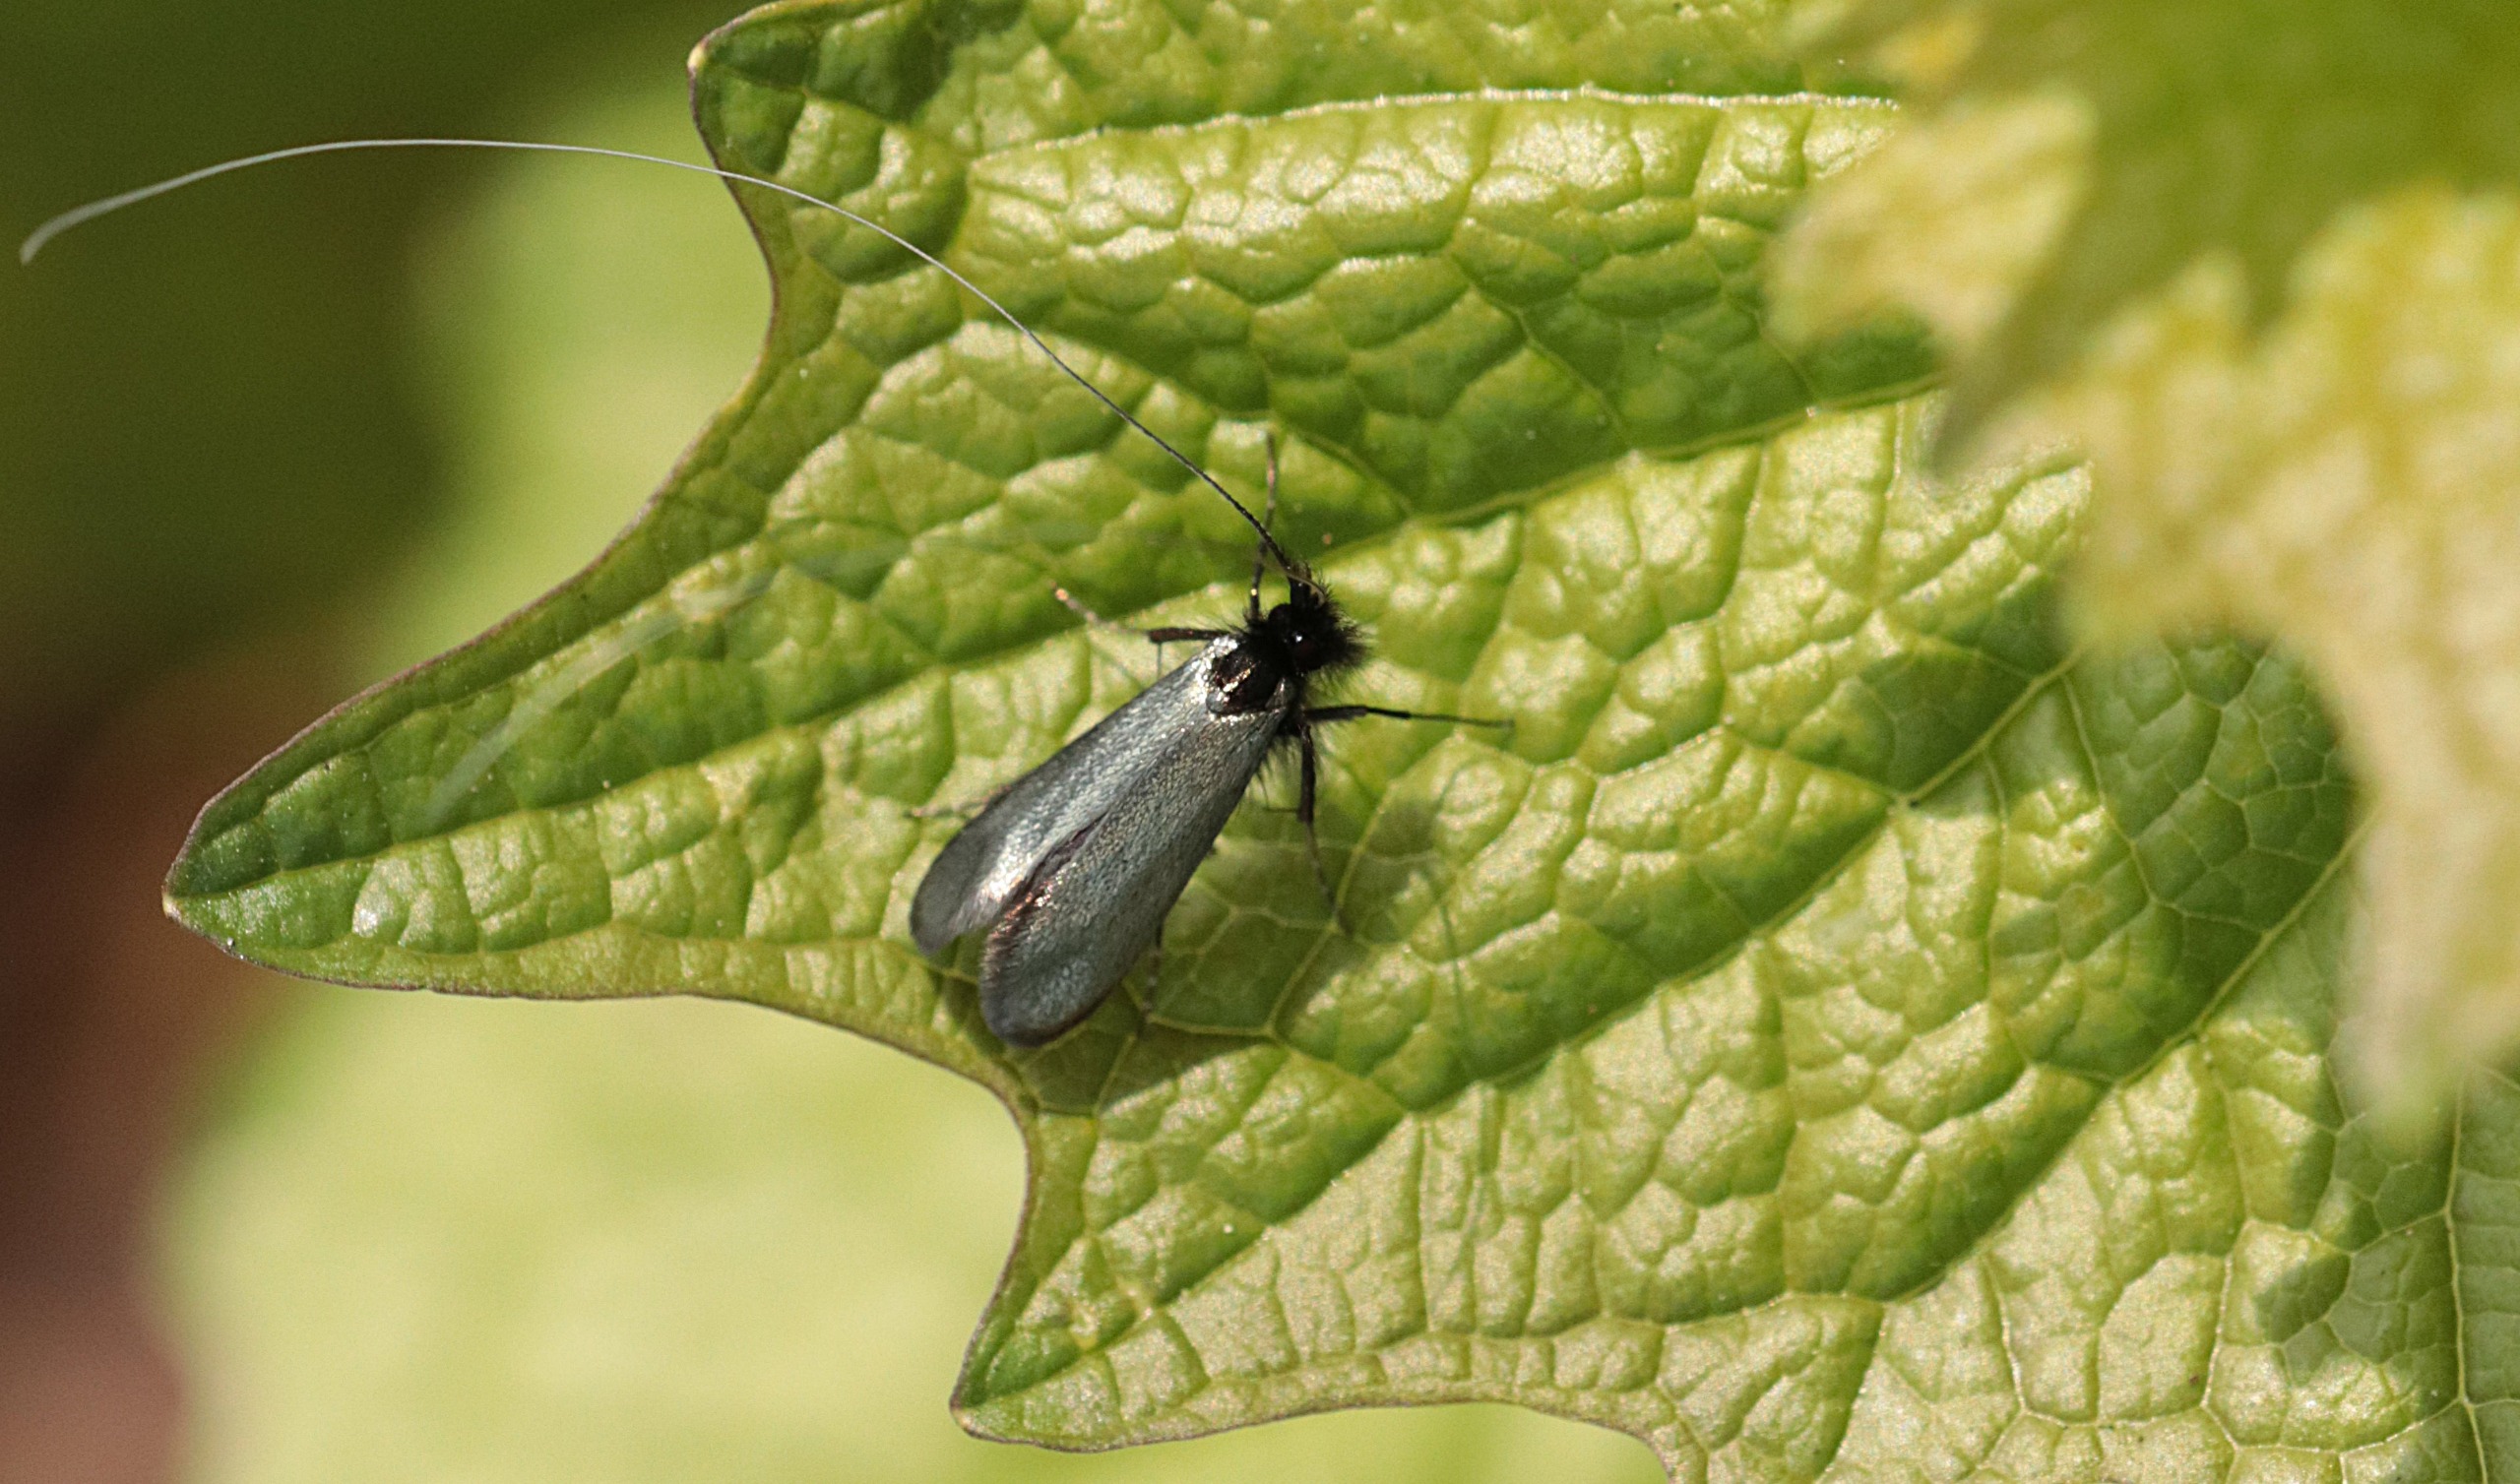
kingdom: Animalia
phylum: Arthropoda
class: Insecta
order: Lepidoptera
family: Adelidae
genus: Adela
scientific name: Adela viridella
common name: Egelanghornsmøl
